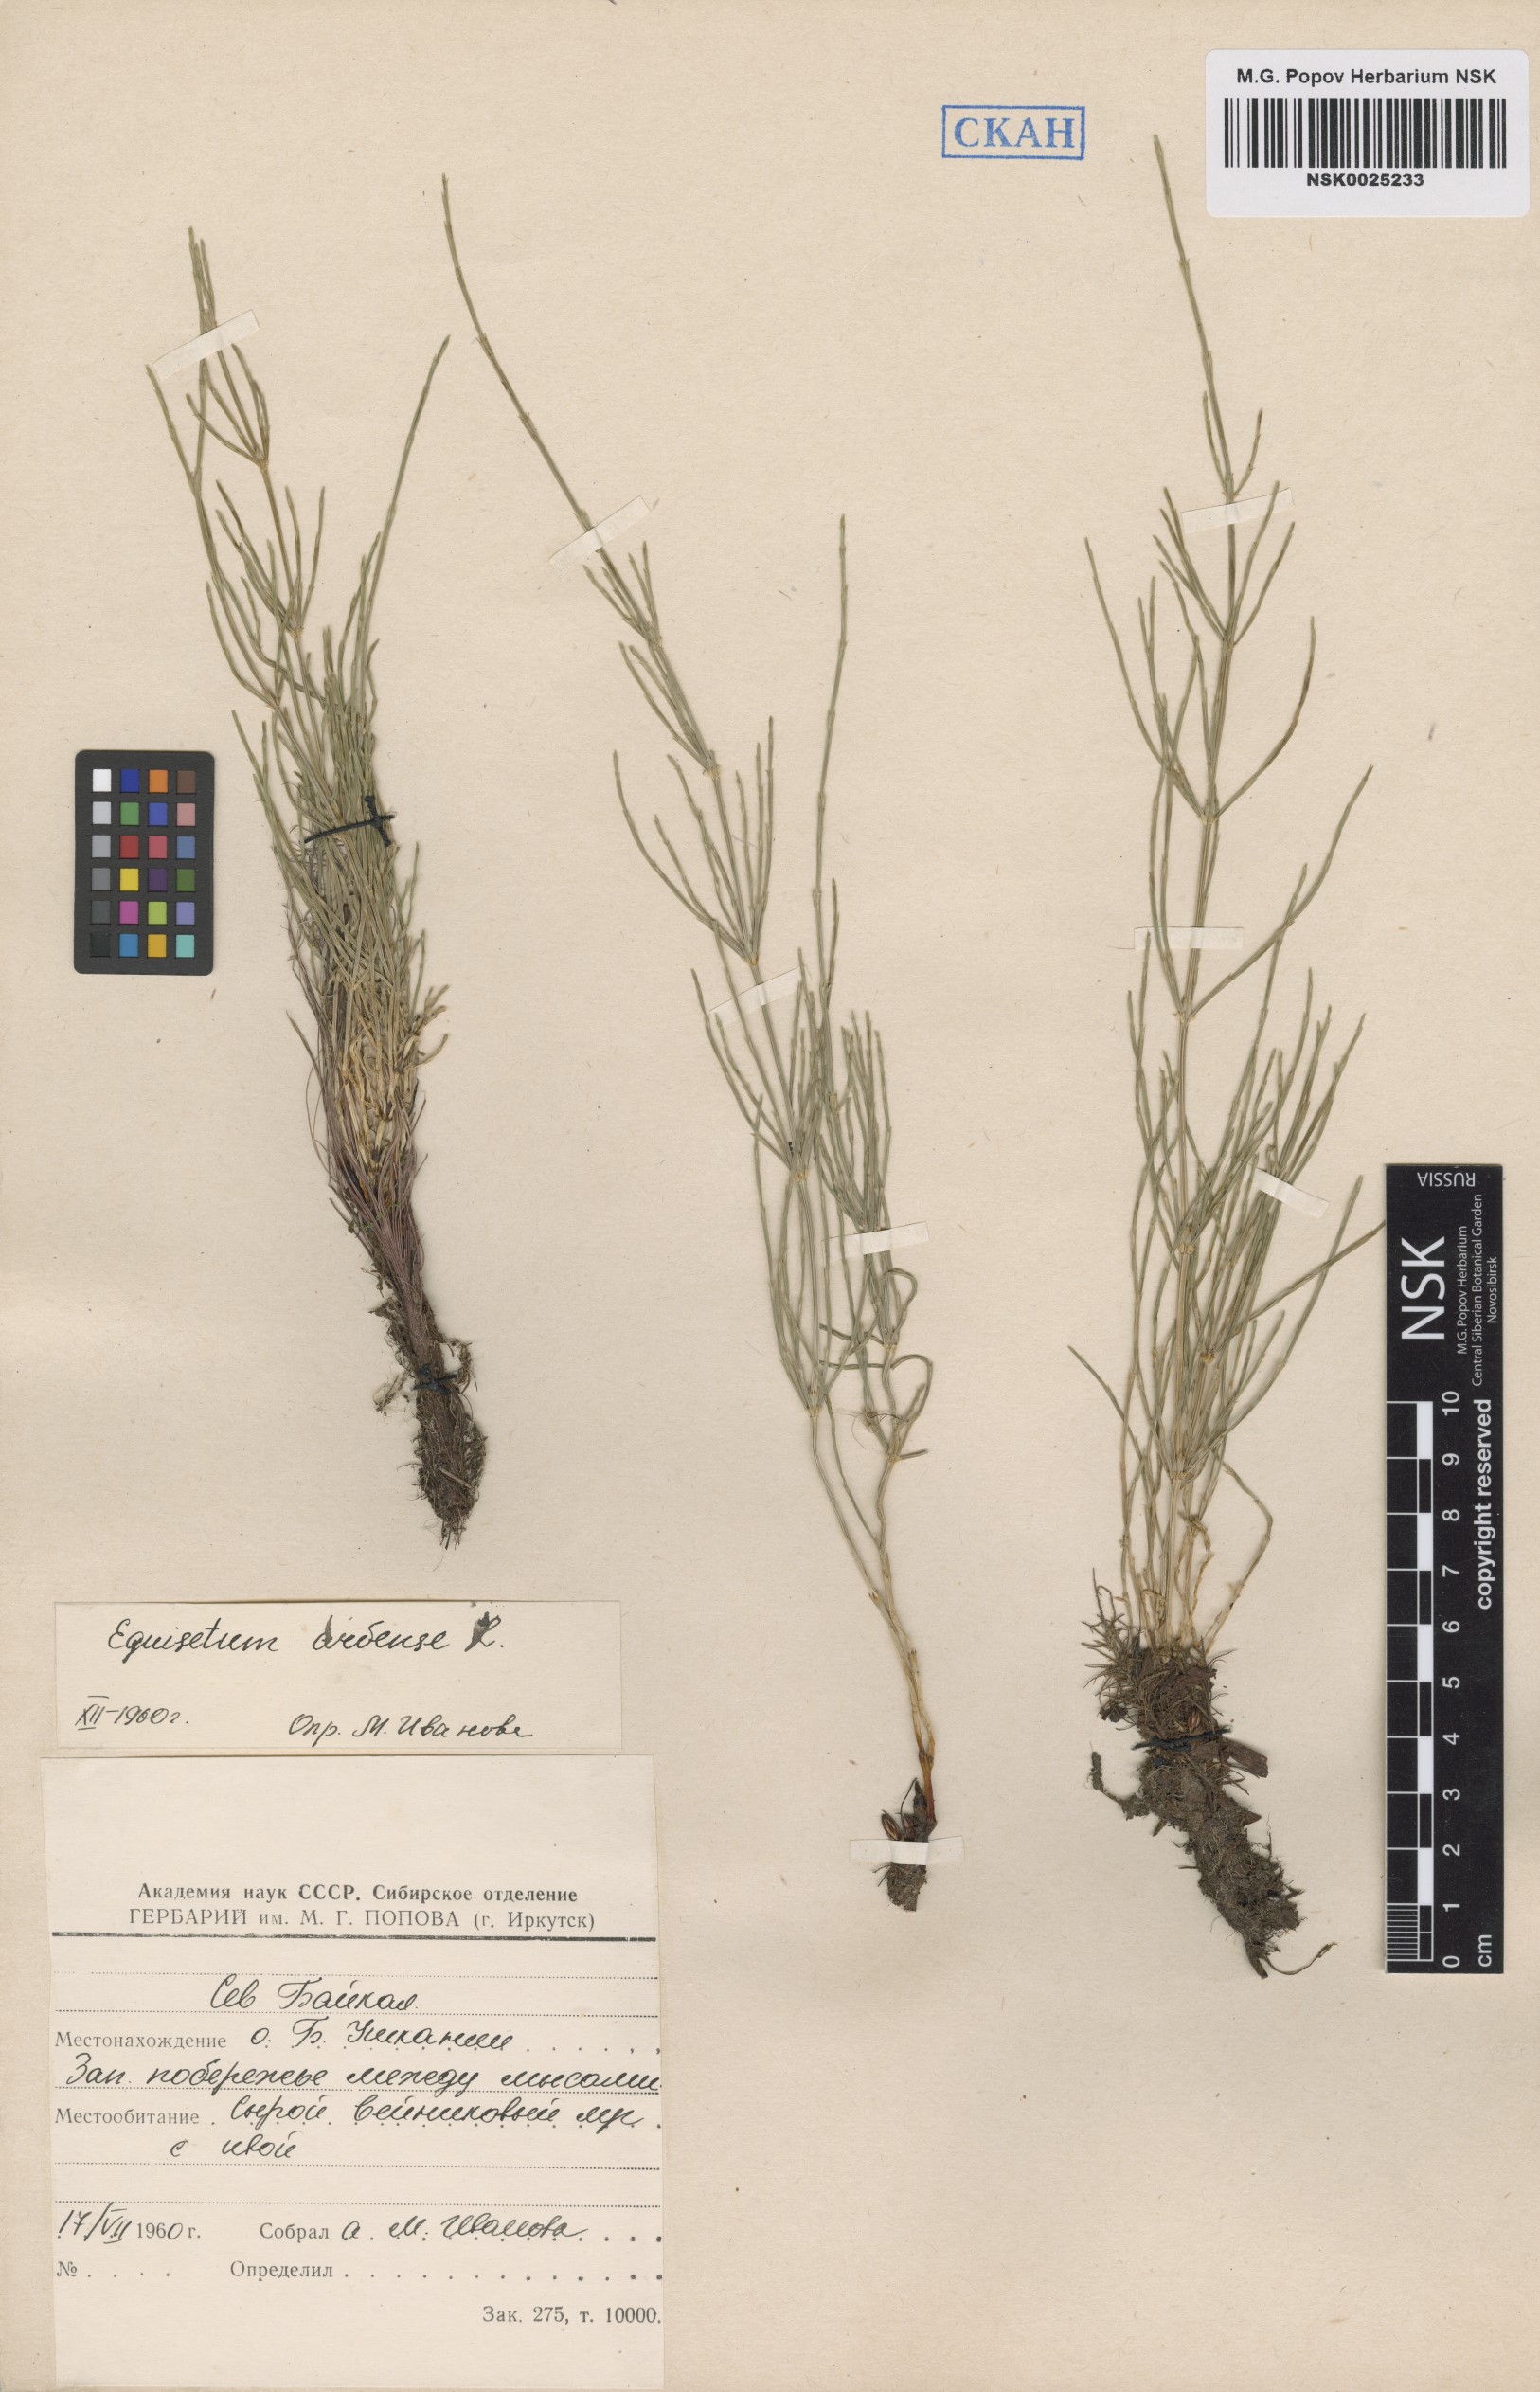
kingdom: Plantae
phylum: Tracheophyta
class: Polypodiopsida
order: Equisetales
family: Equisetaceae
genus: Equisetum
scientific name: Equisetum arvense
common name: Field horsetail
